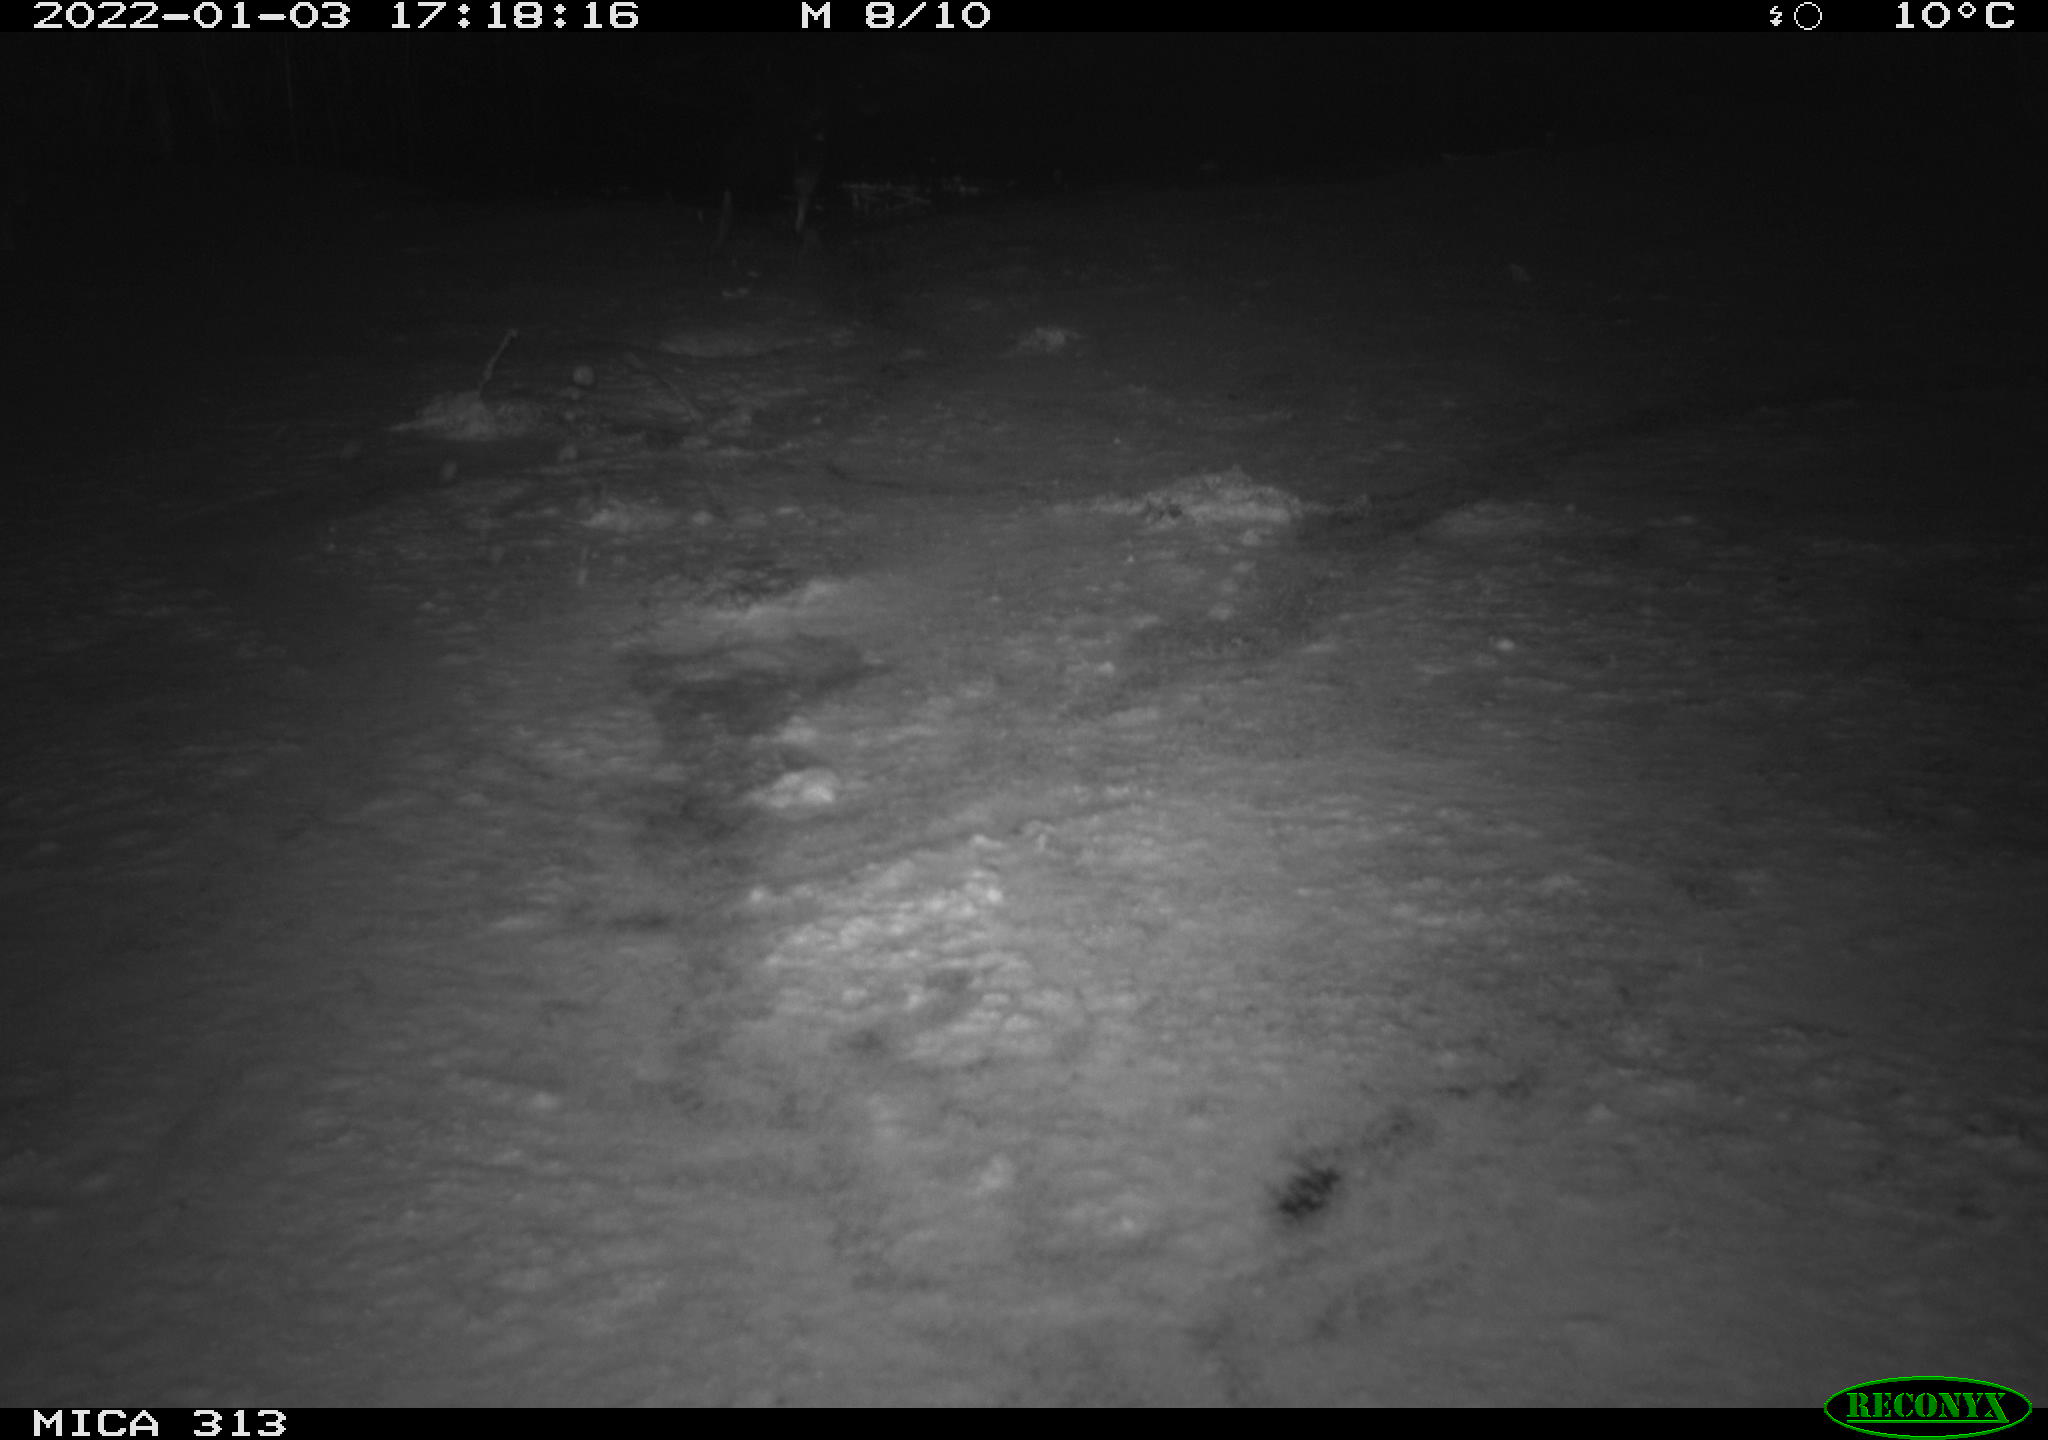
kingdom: Animalia
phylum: Chordata
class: Aves
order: Gruiformes
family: Rallidae
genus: Gallinula
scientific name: Gallinula chloropus
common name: Common moorhen
